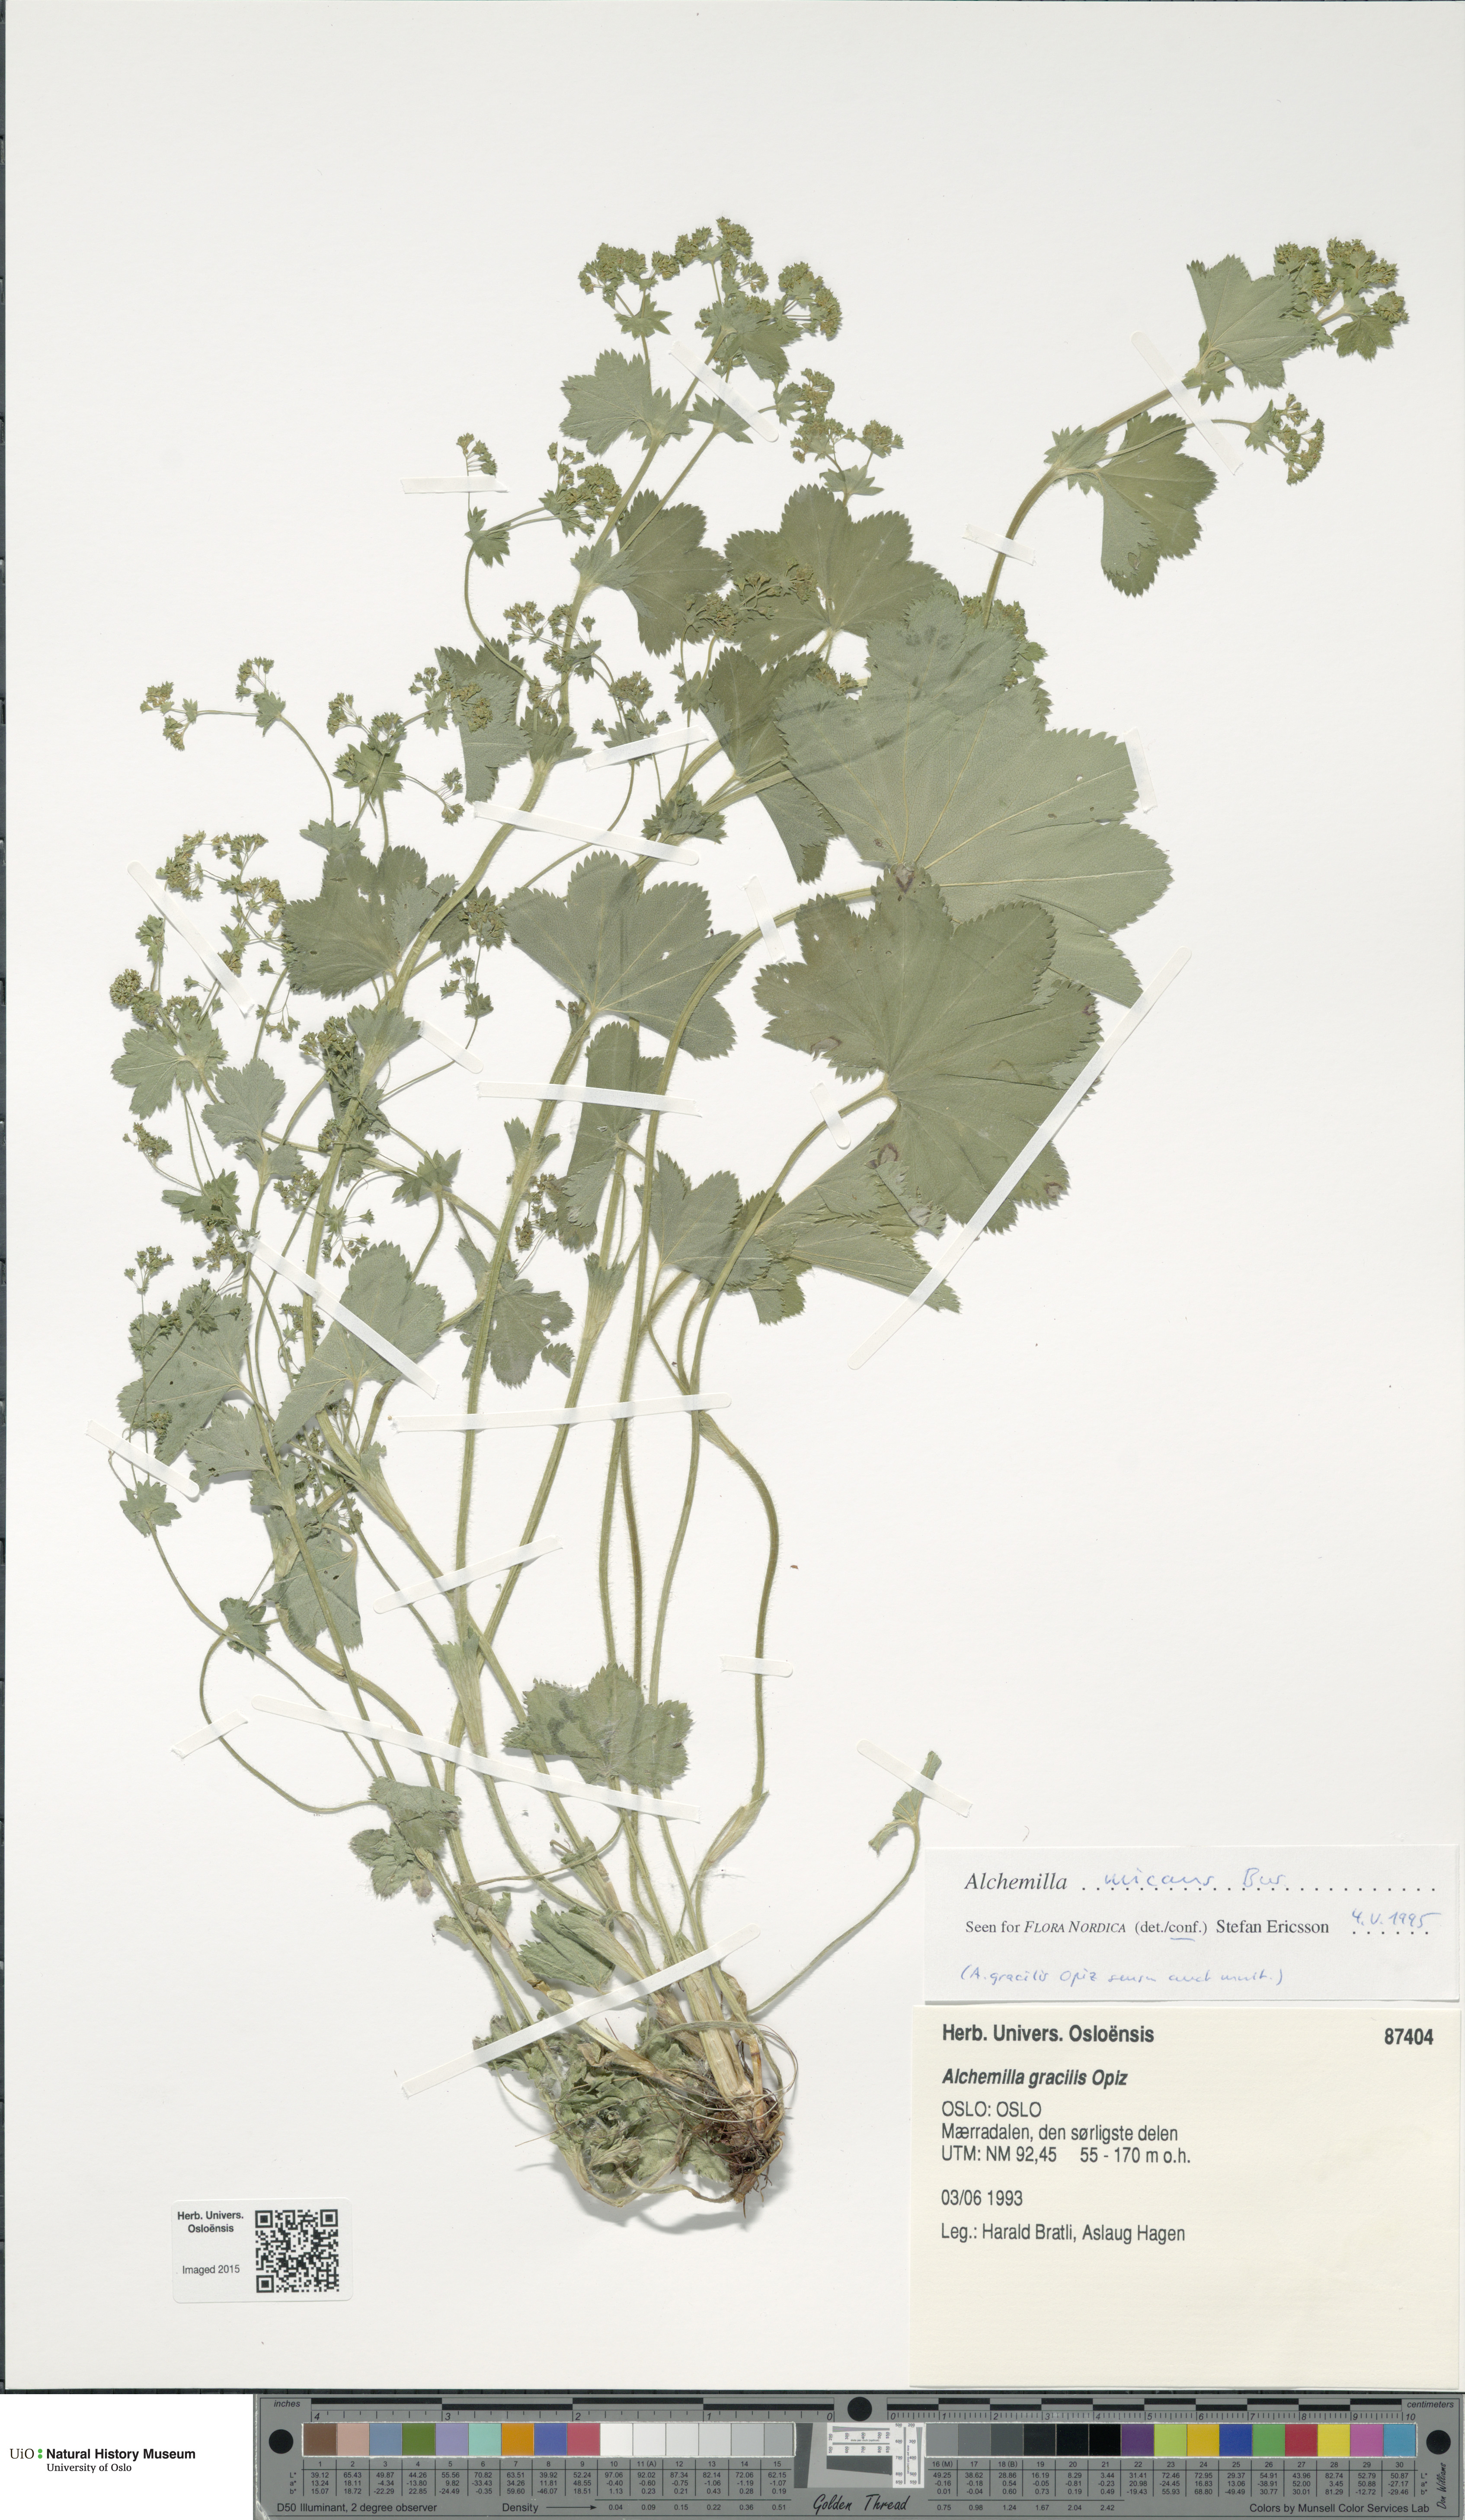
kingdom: Plantae
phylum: Tracheophyta
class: Magnoliopsida
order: Rosales
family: Rosaceae
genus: Alchemilla
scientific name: Alchemilla micans
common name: Gleaming lady's mantle
